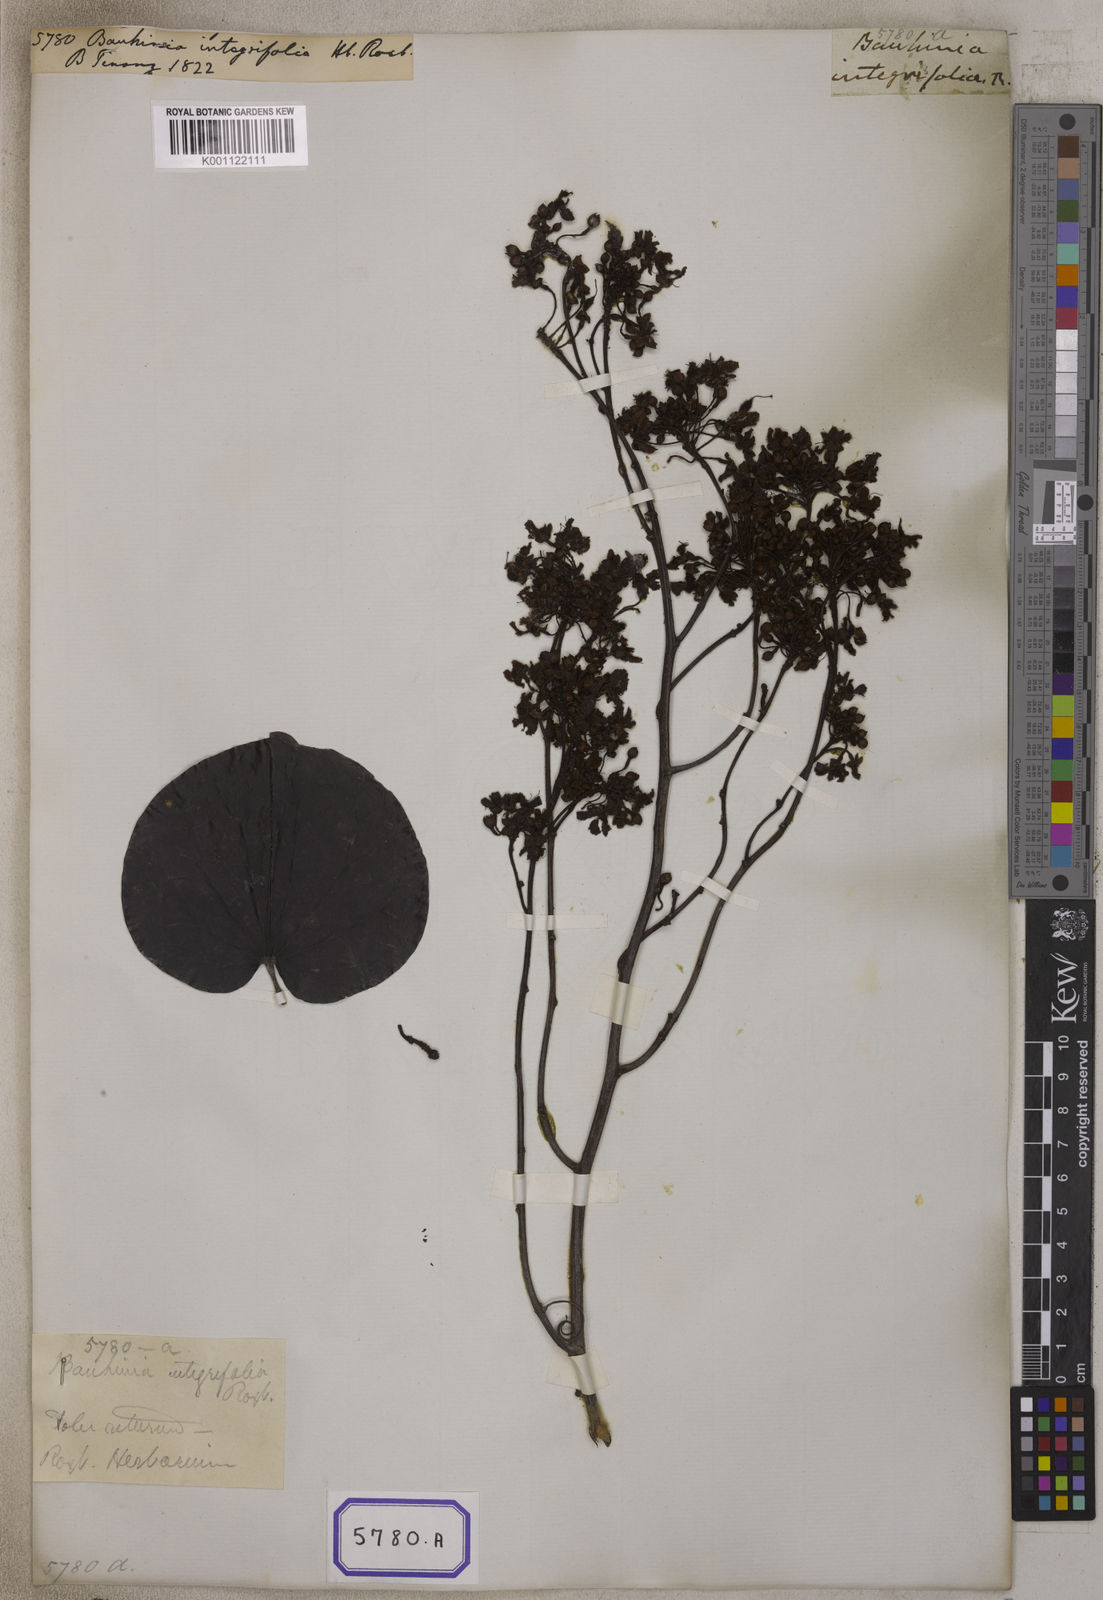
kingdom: Plantae
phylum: Tracheophyta
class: Magnoliopsida
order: Fabales
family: Fabaceae
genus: Phanera
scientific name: Phanera integrifolia
